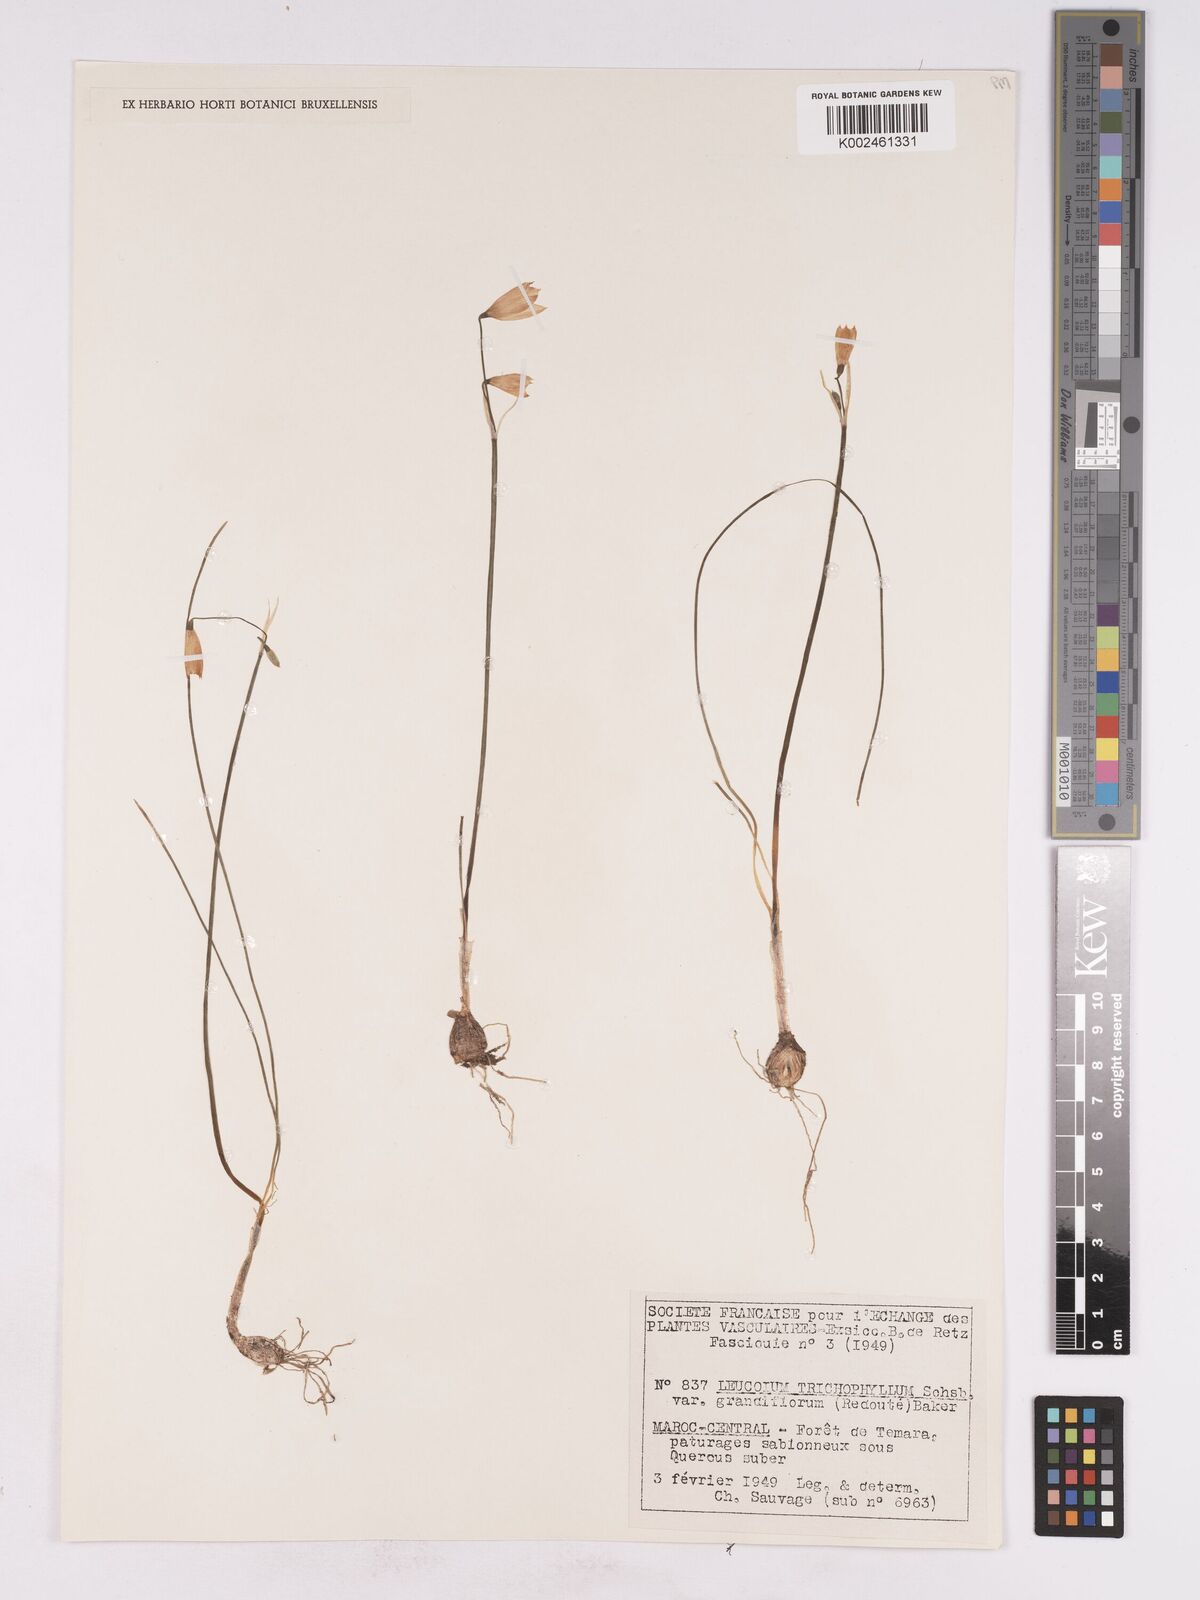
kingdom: Plantae
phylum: Tracheophyta
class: Liliopsida
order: Asparagales
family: Amaryllidaceae
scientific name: Amaryllidaceae
